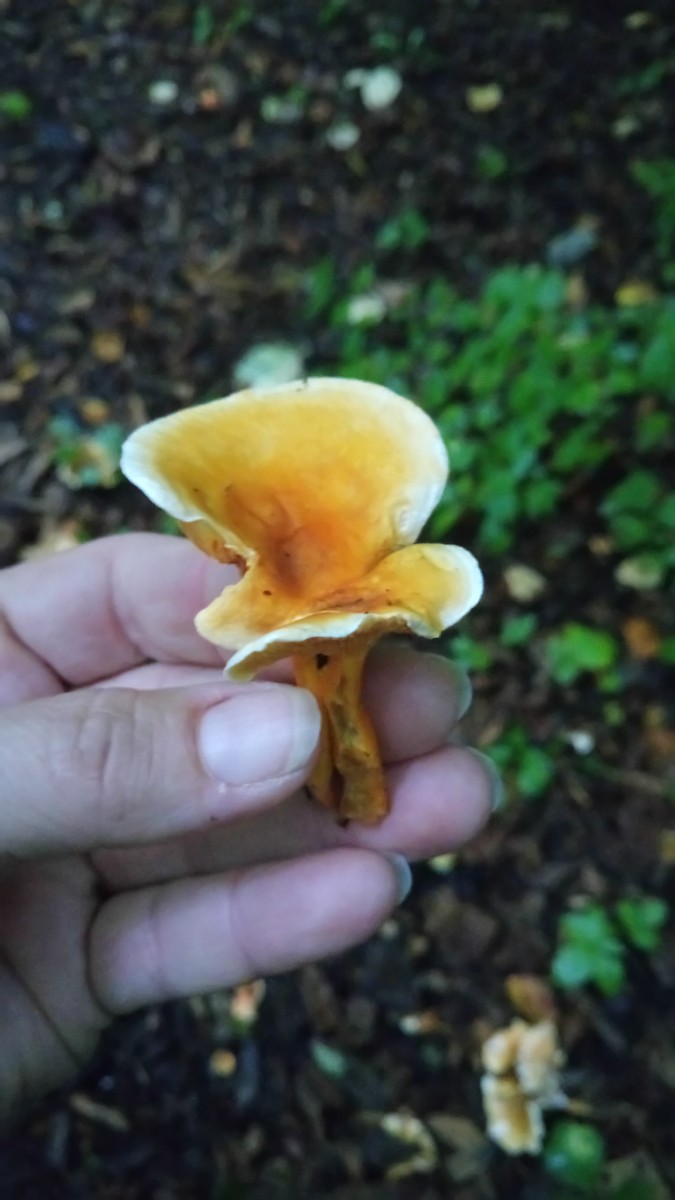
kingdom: Fungi
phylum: Basidiomycota
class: Agaricomycetes
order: Boletales
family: Hygrophoropsidaceae
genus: Hygrophoropsis
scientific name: Hygrophoropsis aurantiaca
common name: almindelig orangekantarel
